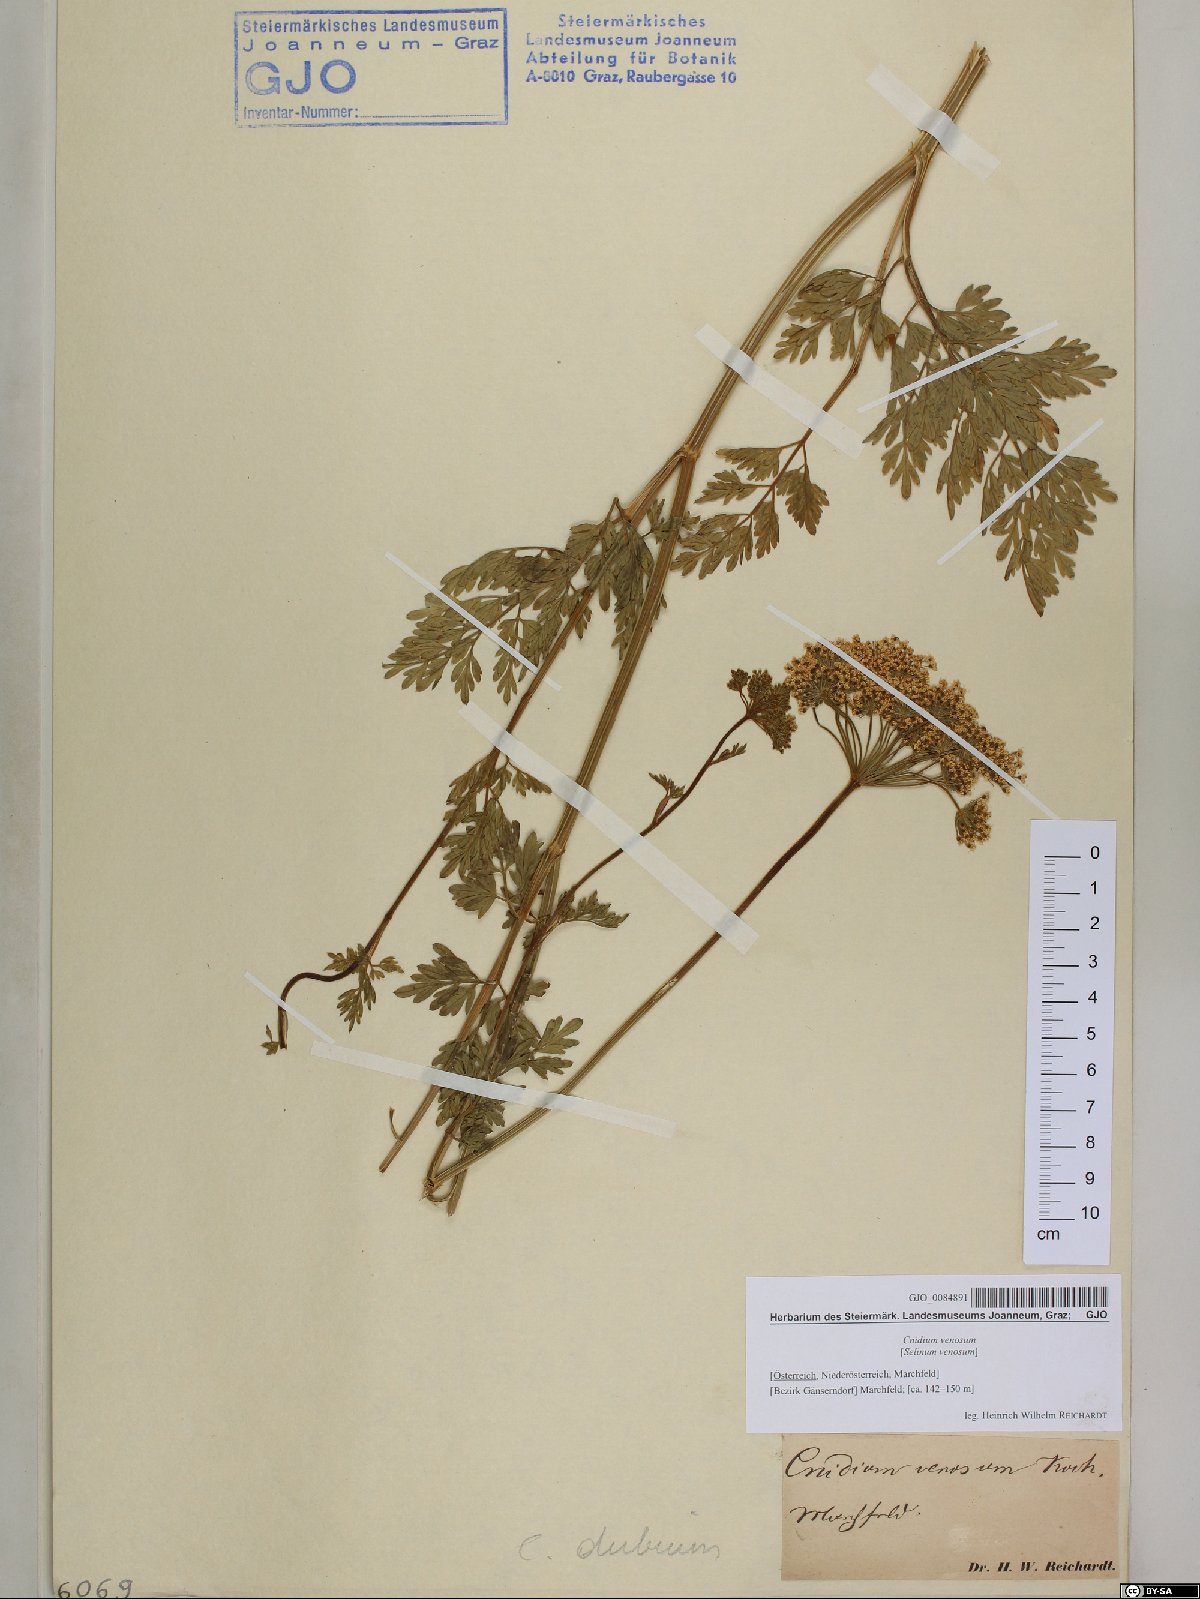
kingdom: Plantae
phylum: Tracheophyta
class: Magnoliopsida
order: Apiales
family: Apiaceae
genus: Kadenia
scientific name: Kadenia dubia
